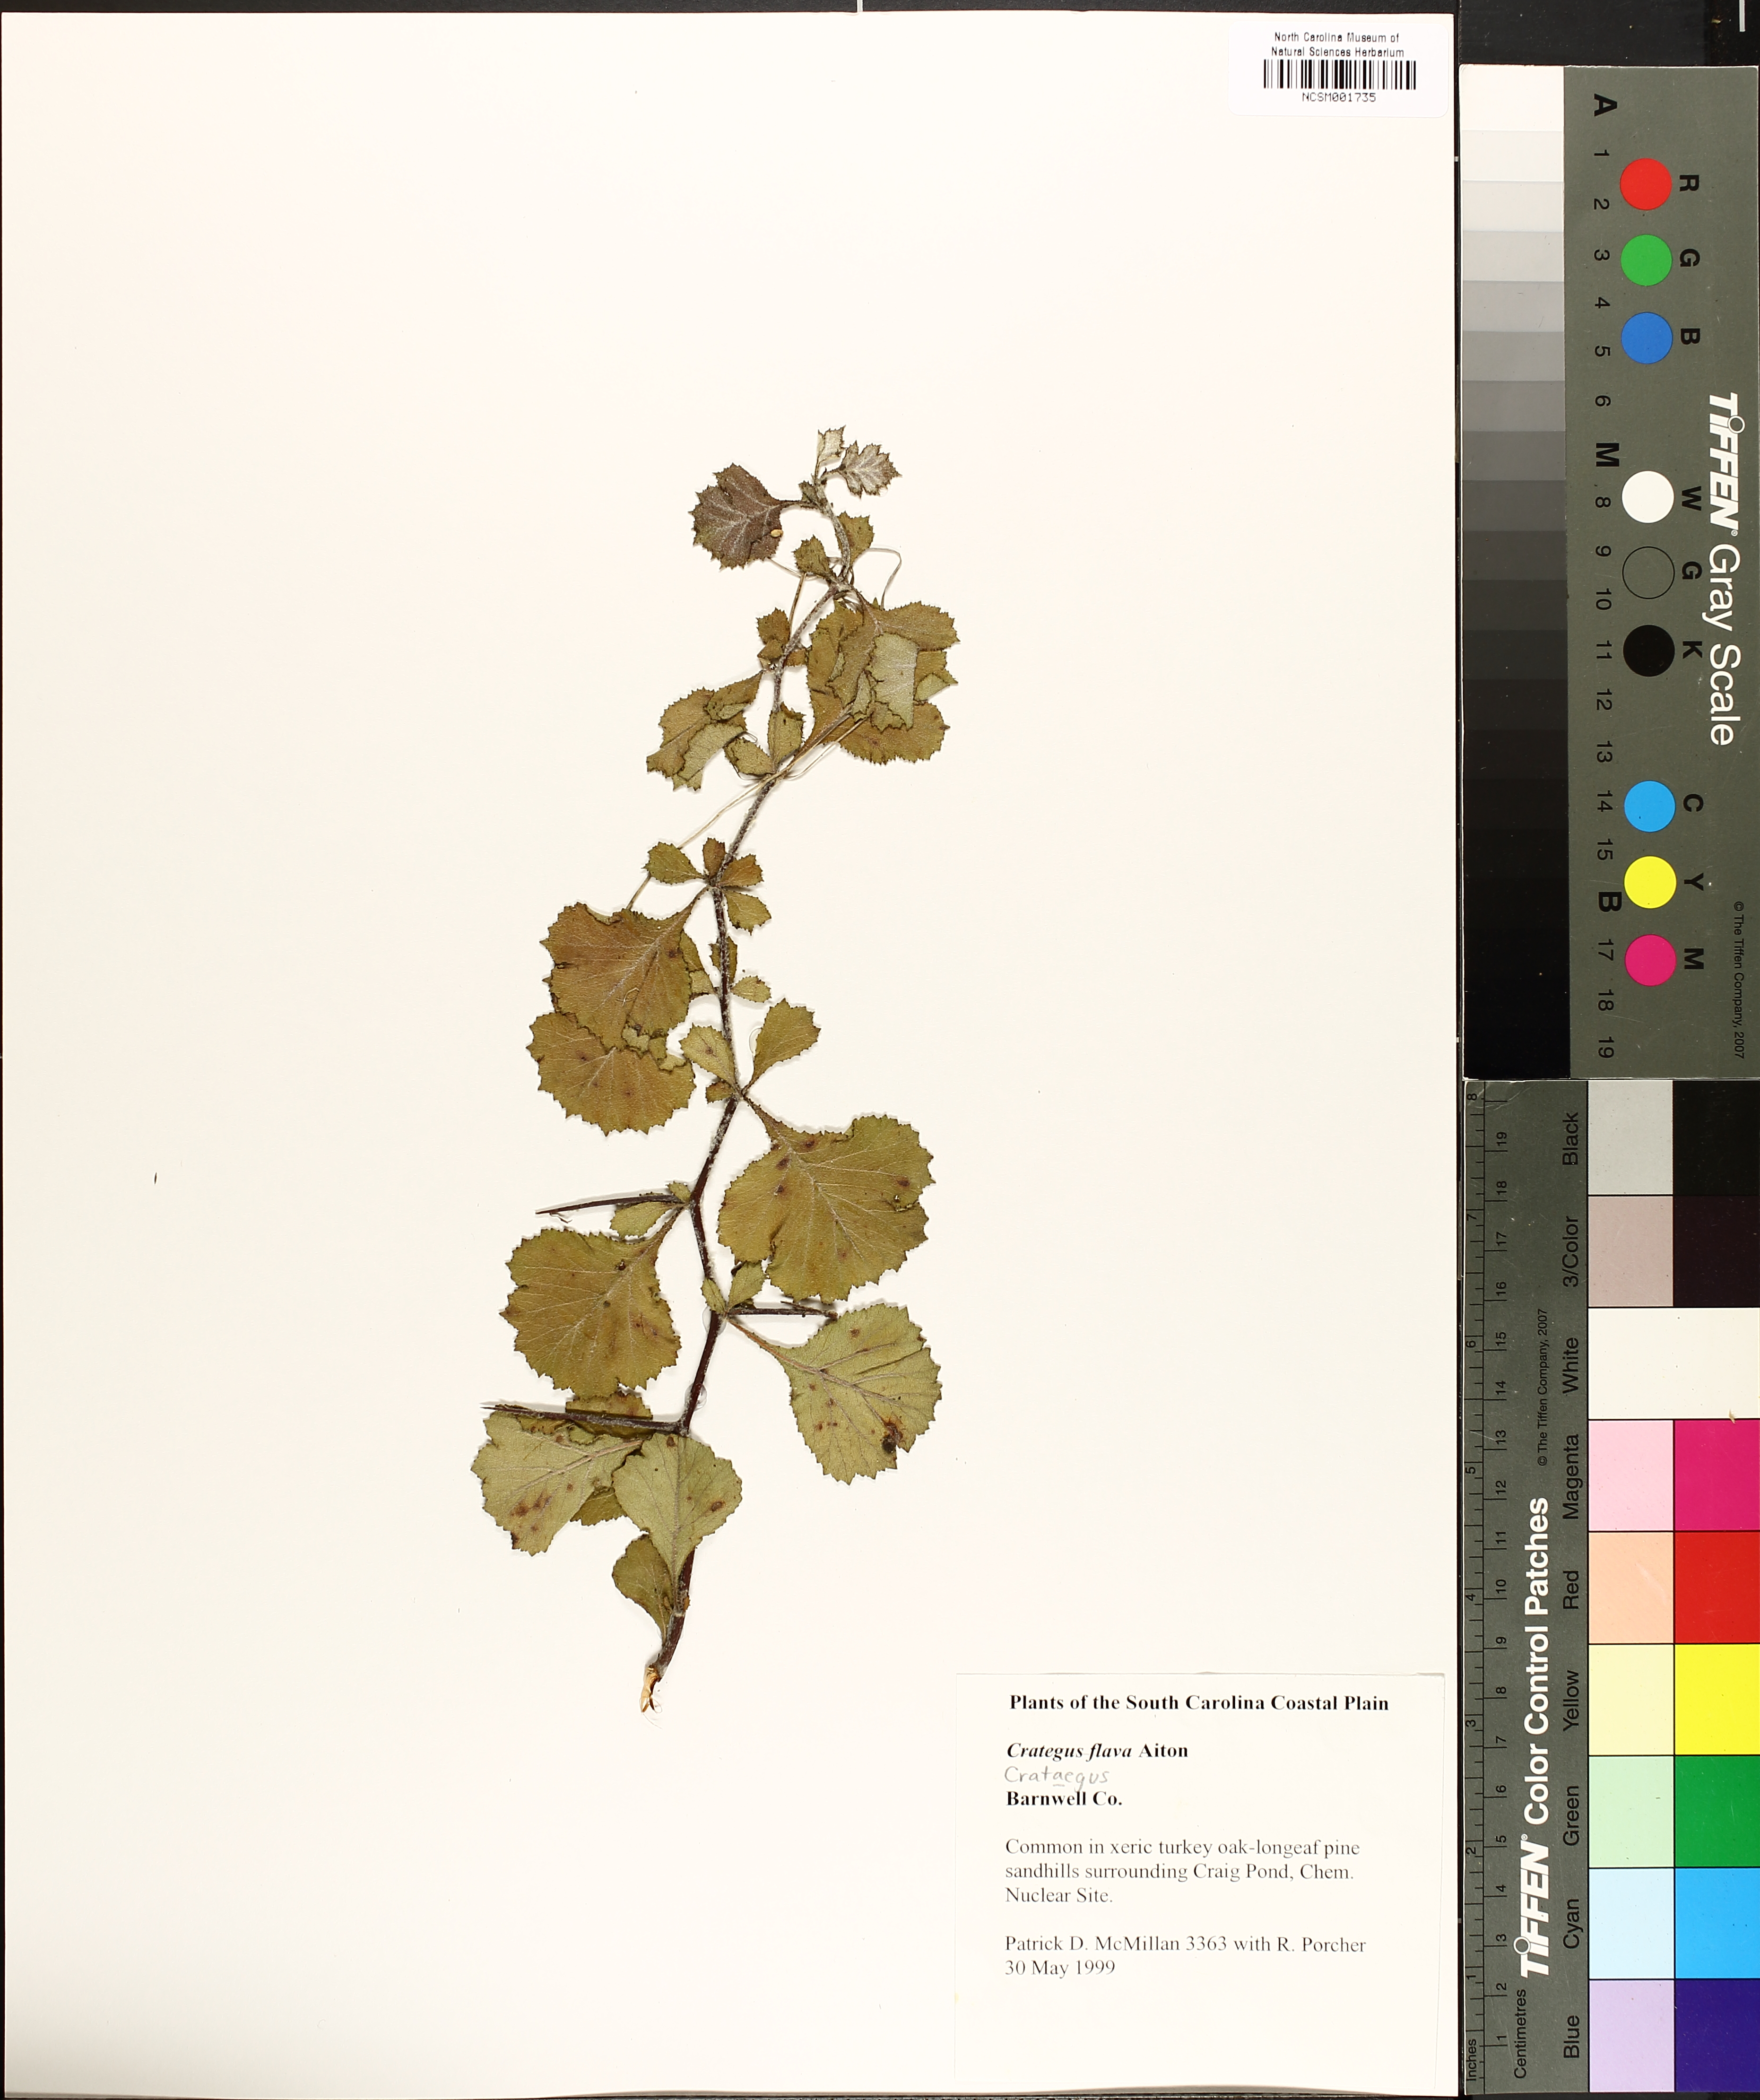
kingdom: Plantae
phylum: Tracheophyta
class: Magnoliopsida
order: Rosales
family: Rosaceae
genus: Crataegus
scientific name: Crataegus flava
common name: Yellow hawthorn
